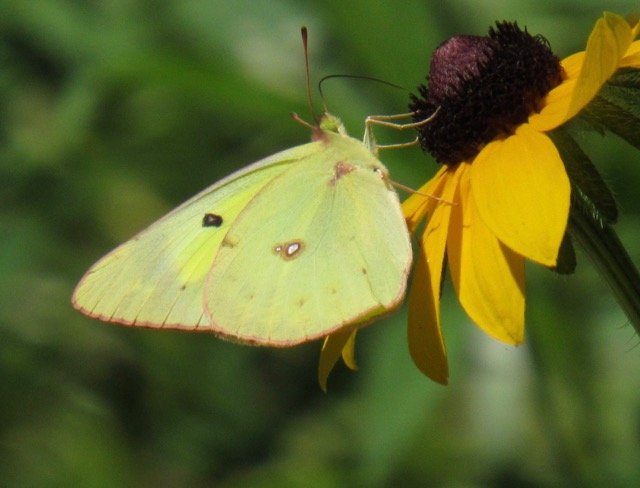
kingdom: Animalia
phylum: Arthropoda
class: Insecta
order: Lepidoptera
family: Pieridae
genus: Colias
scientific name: Colias philodice
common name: Clouded Sulphur
